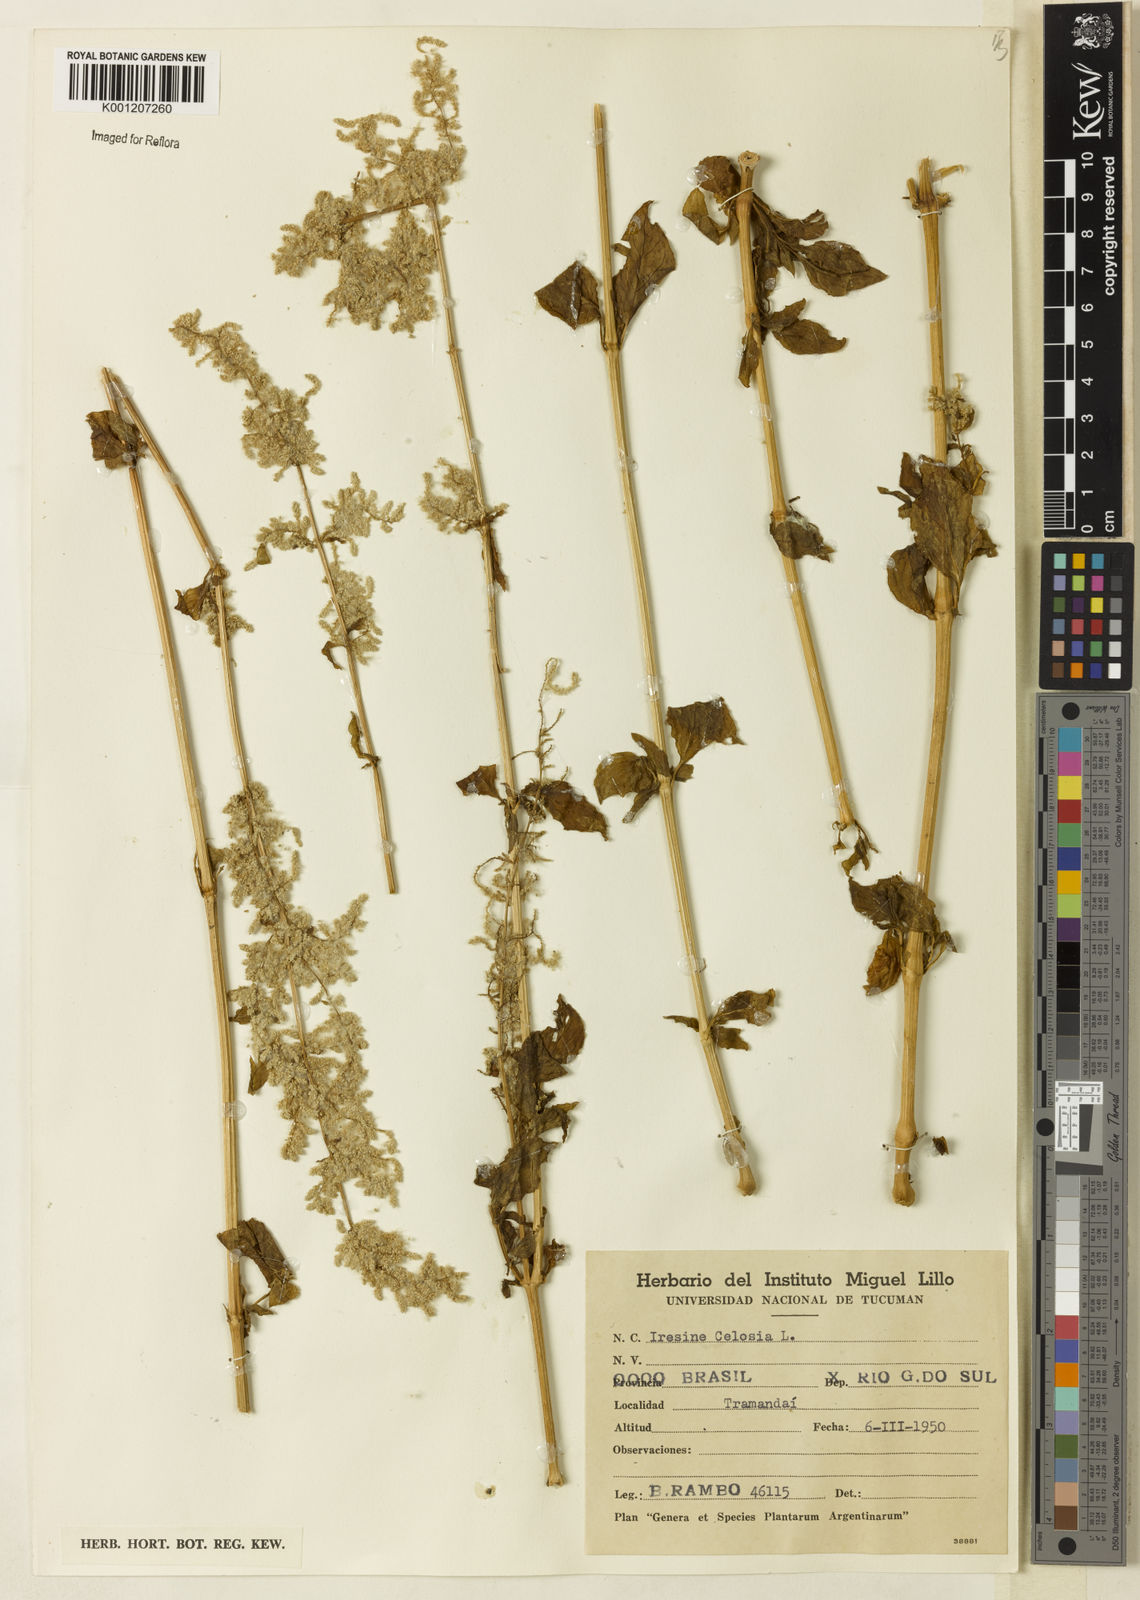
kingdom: Plantae
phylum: Tracheophyta
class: Magnoliopsida
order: Caryophyllales
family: Amaranthaceae
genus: Iresine
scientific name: Iresine rhizomatosa
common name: Juda's-bush
